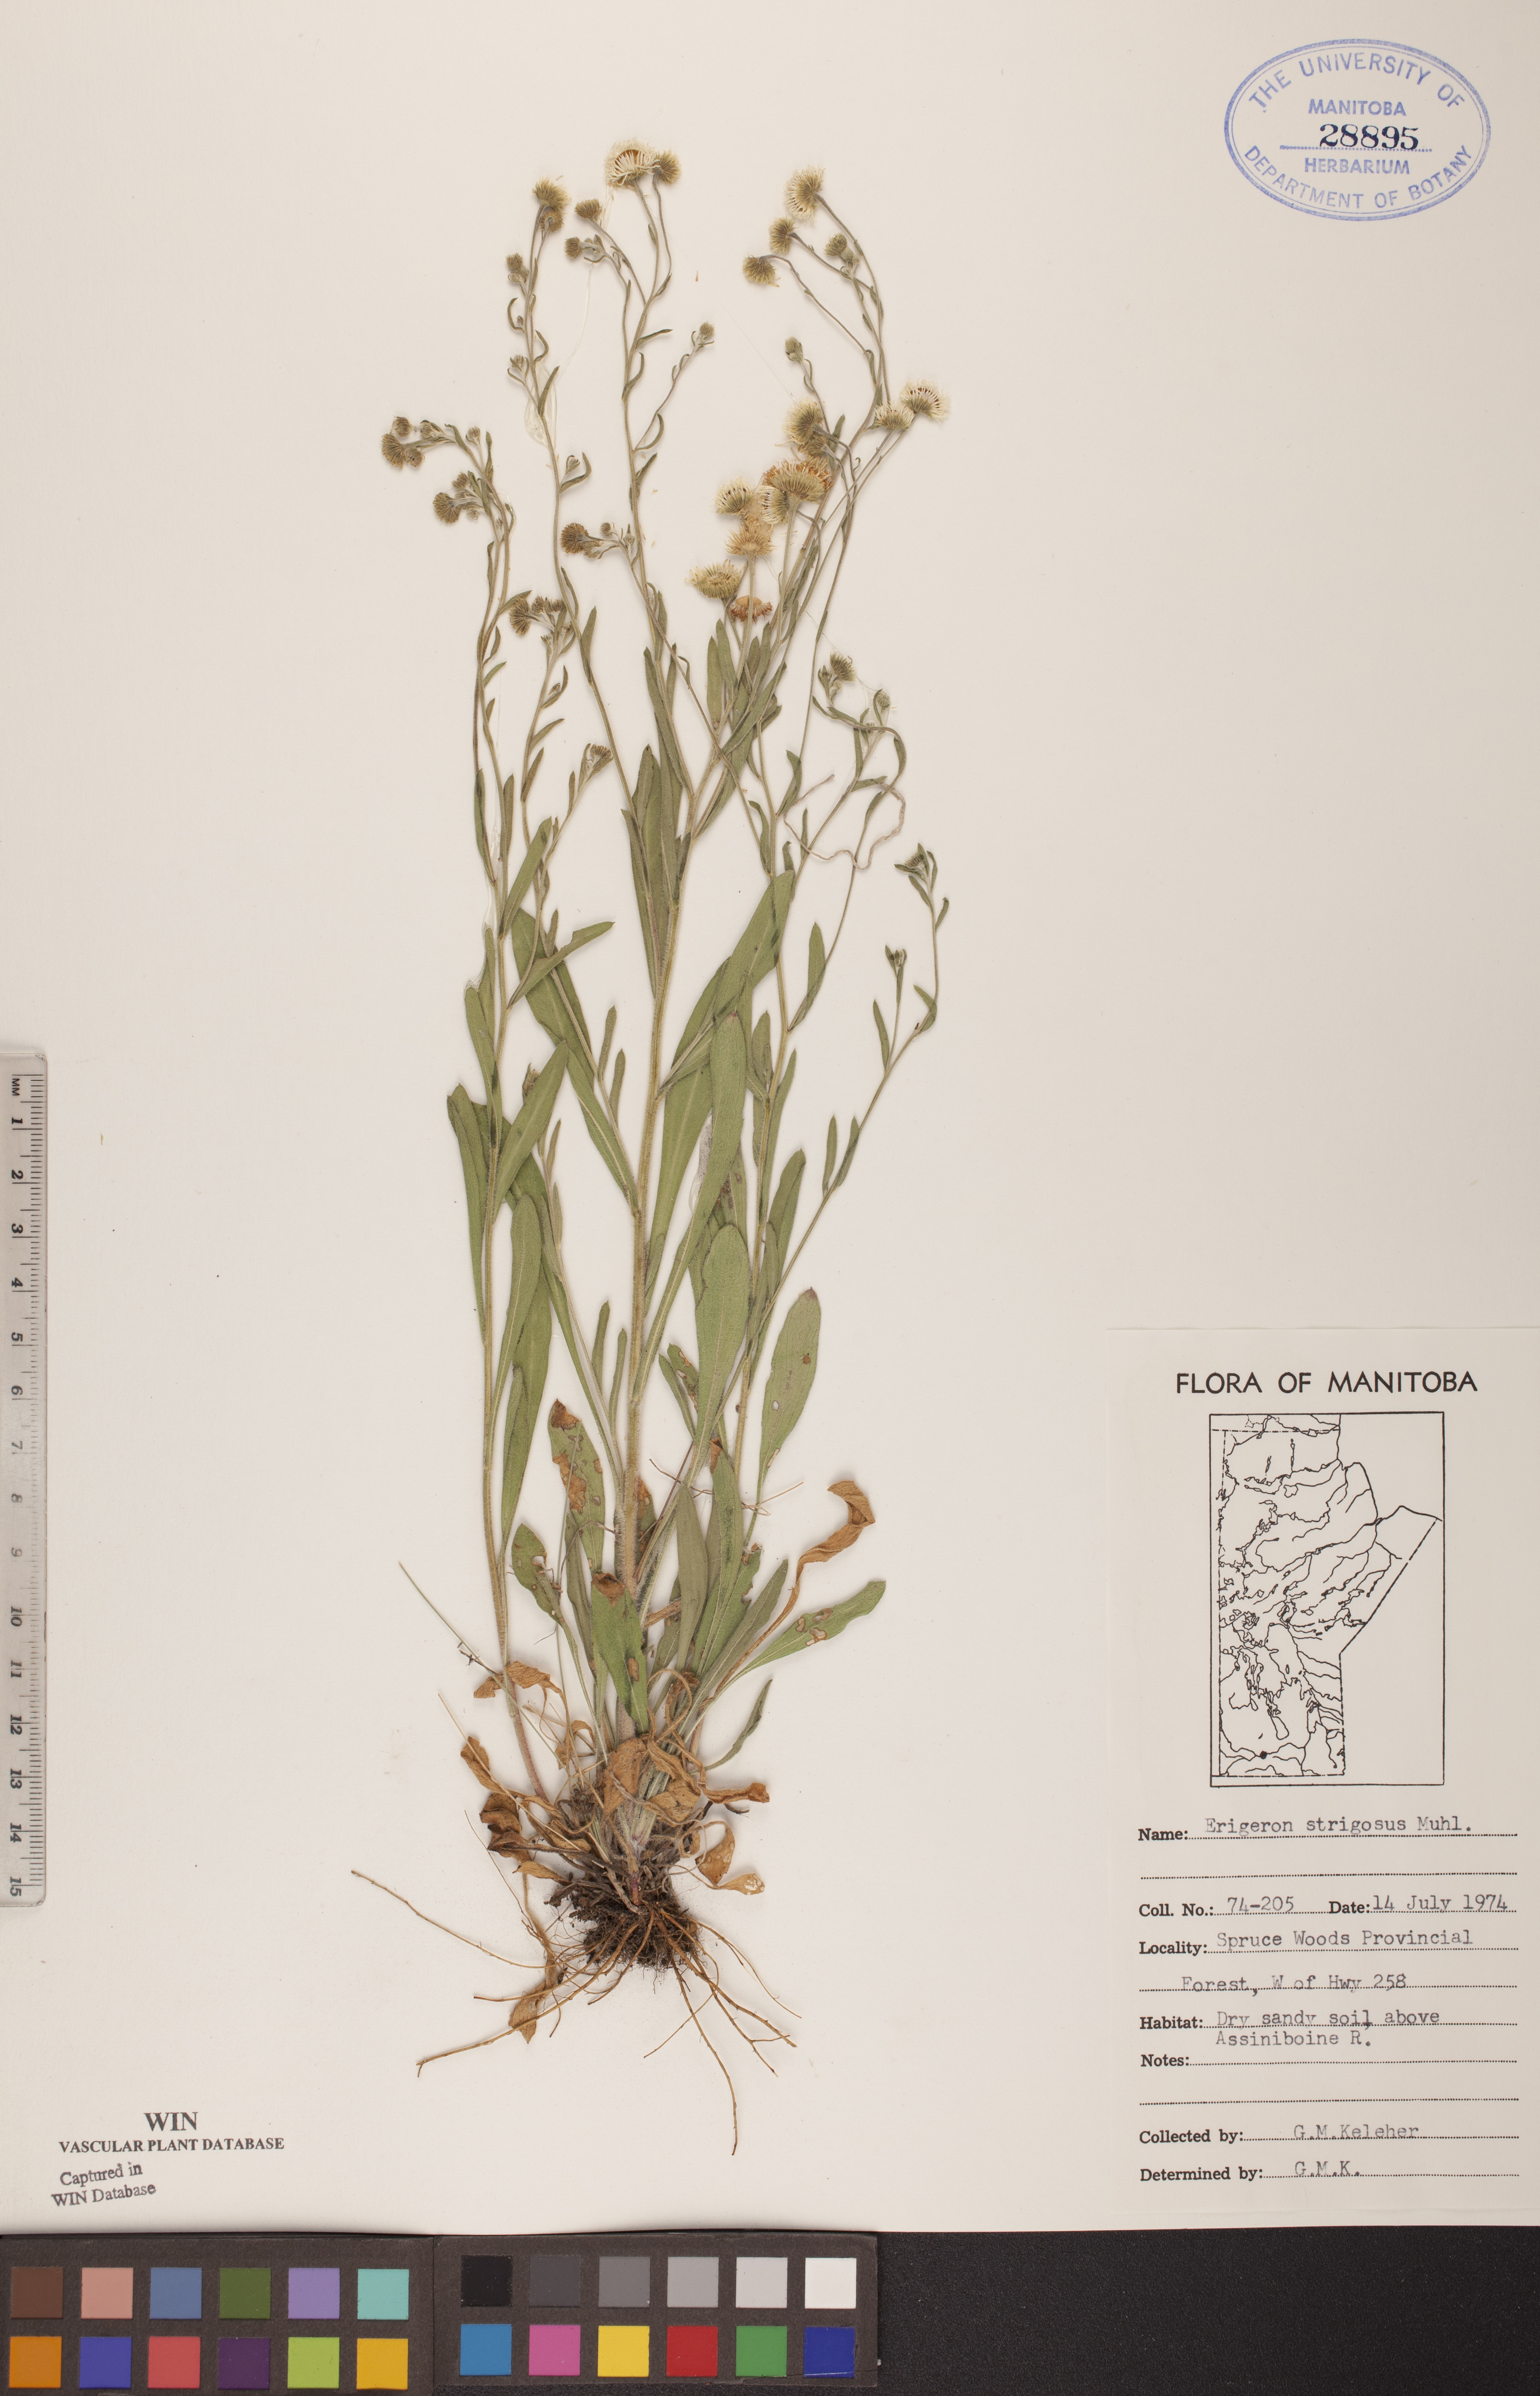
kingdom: Plantae
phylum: Tracheophyta
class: Magnoliopsida
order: Asterales
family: Asteraceae
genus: Erigeron
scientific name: Erigeron strigosus
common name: Common eastern fleabane
